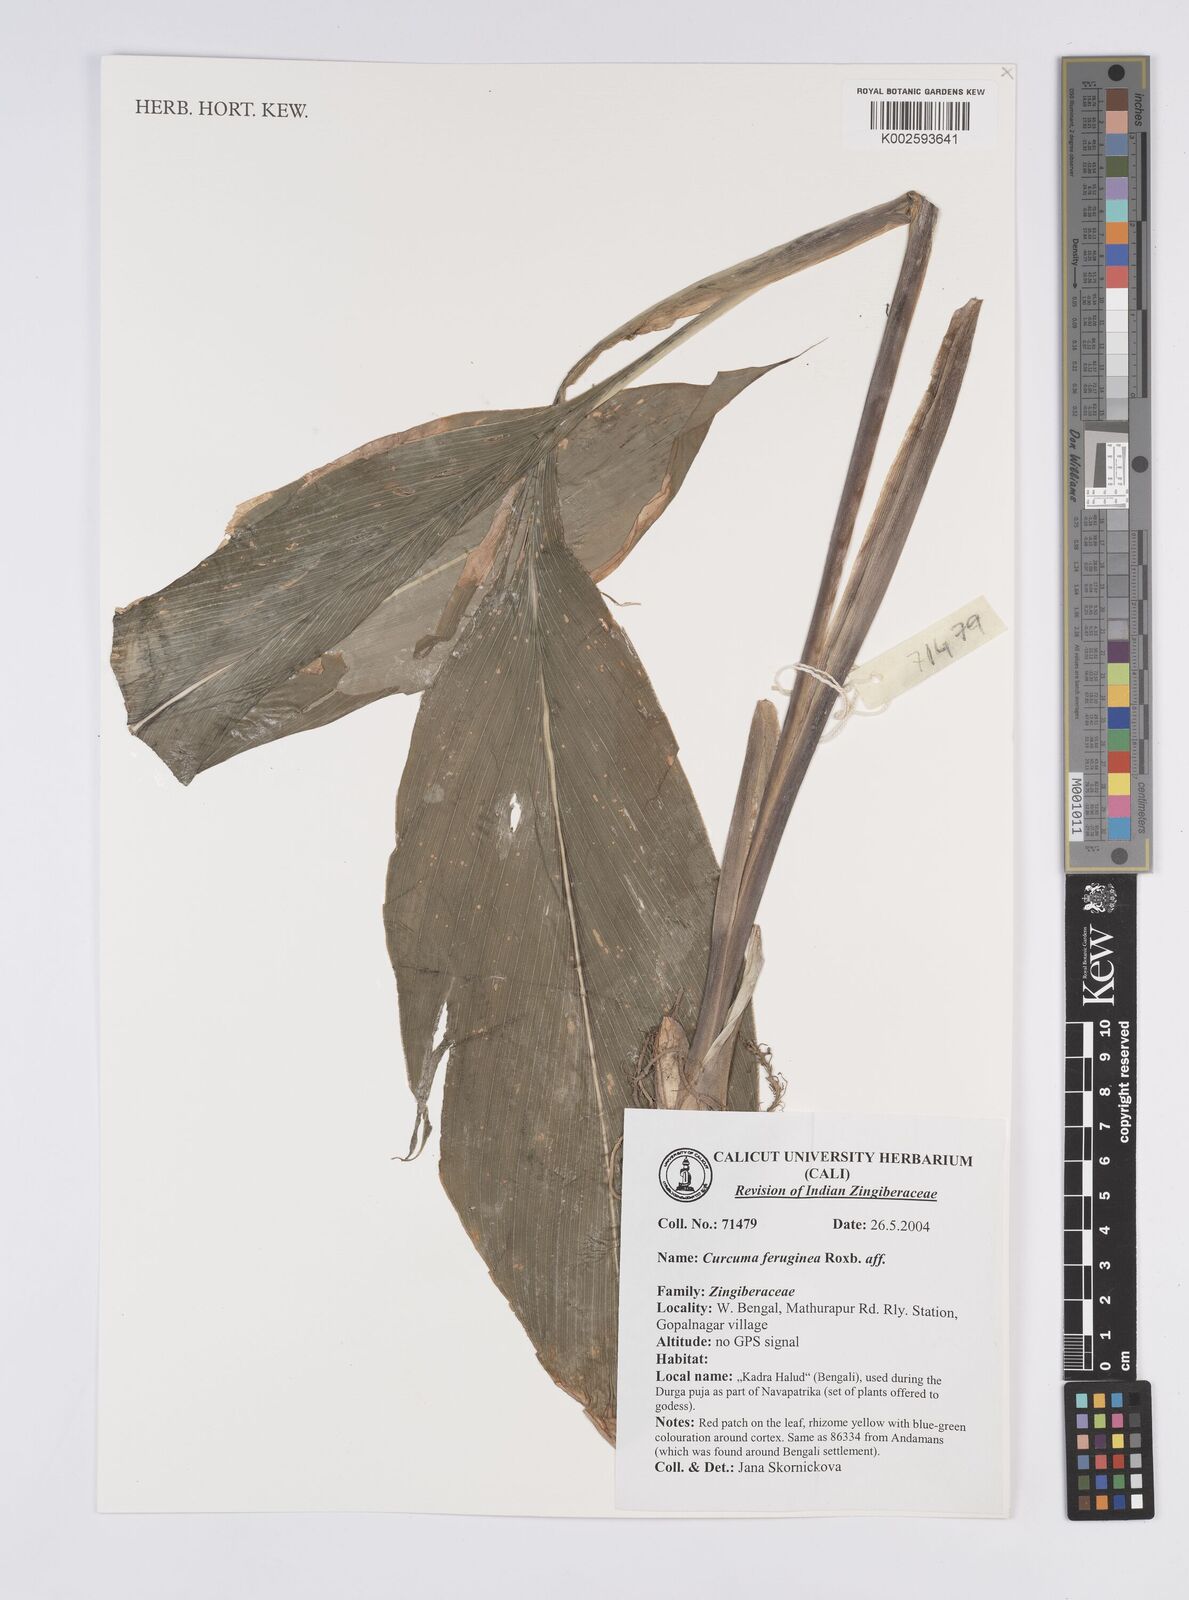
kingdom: Plantae
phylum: Tracheophyta
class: Liliopsida
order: Zingiberales
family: Zingiberaceae
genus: Curcuma
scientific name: Curcuma ferruginea
